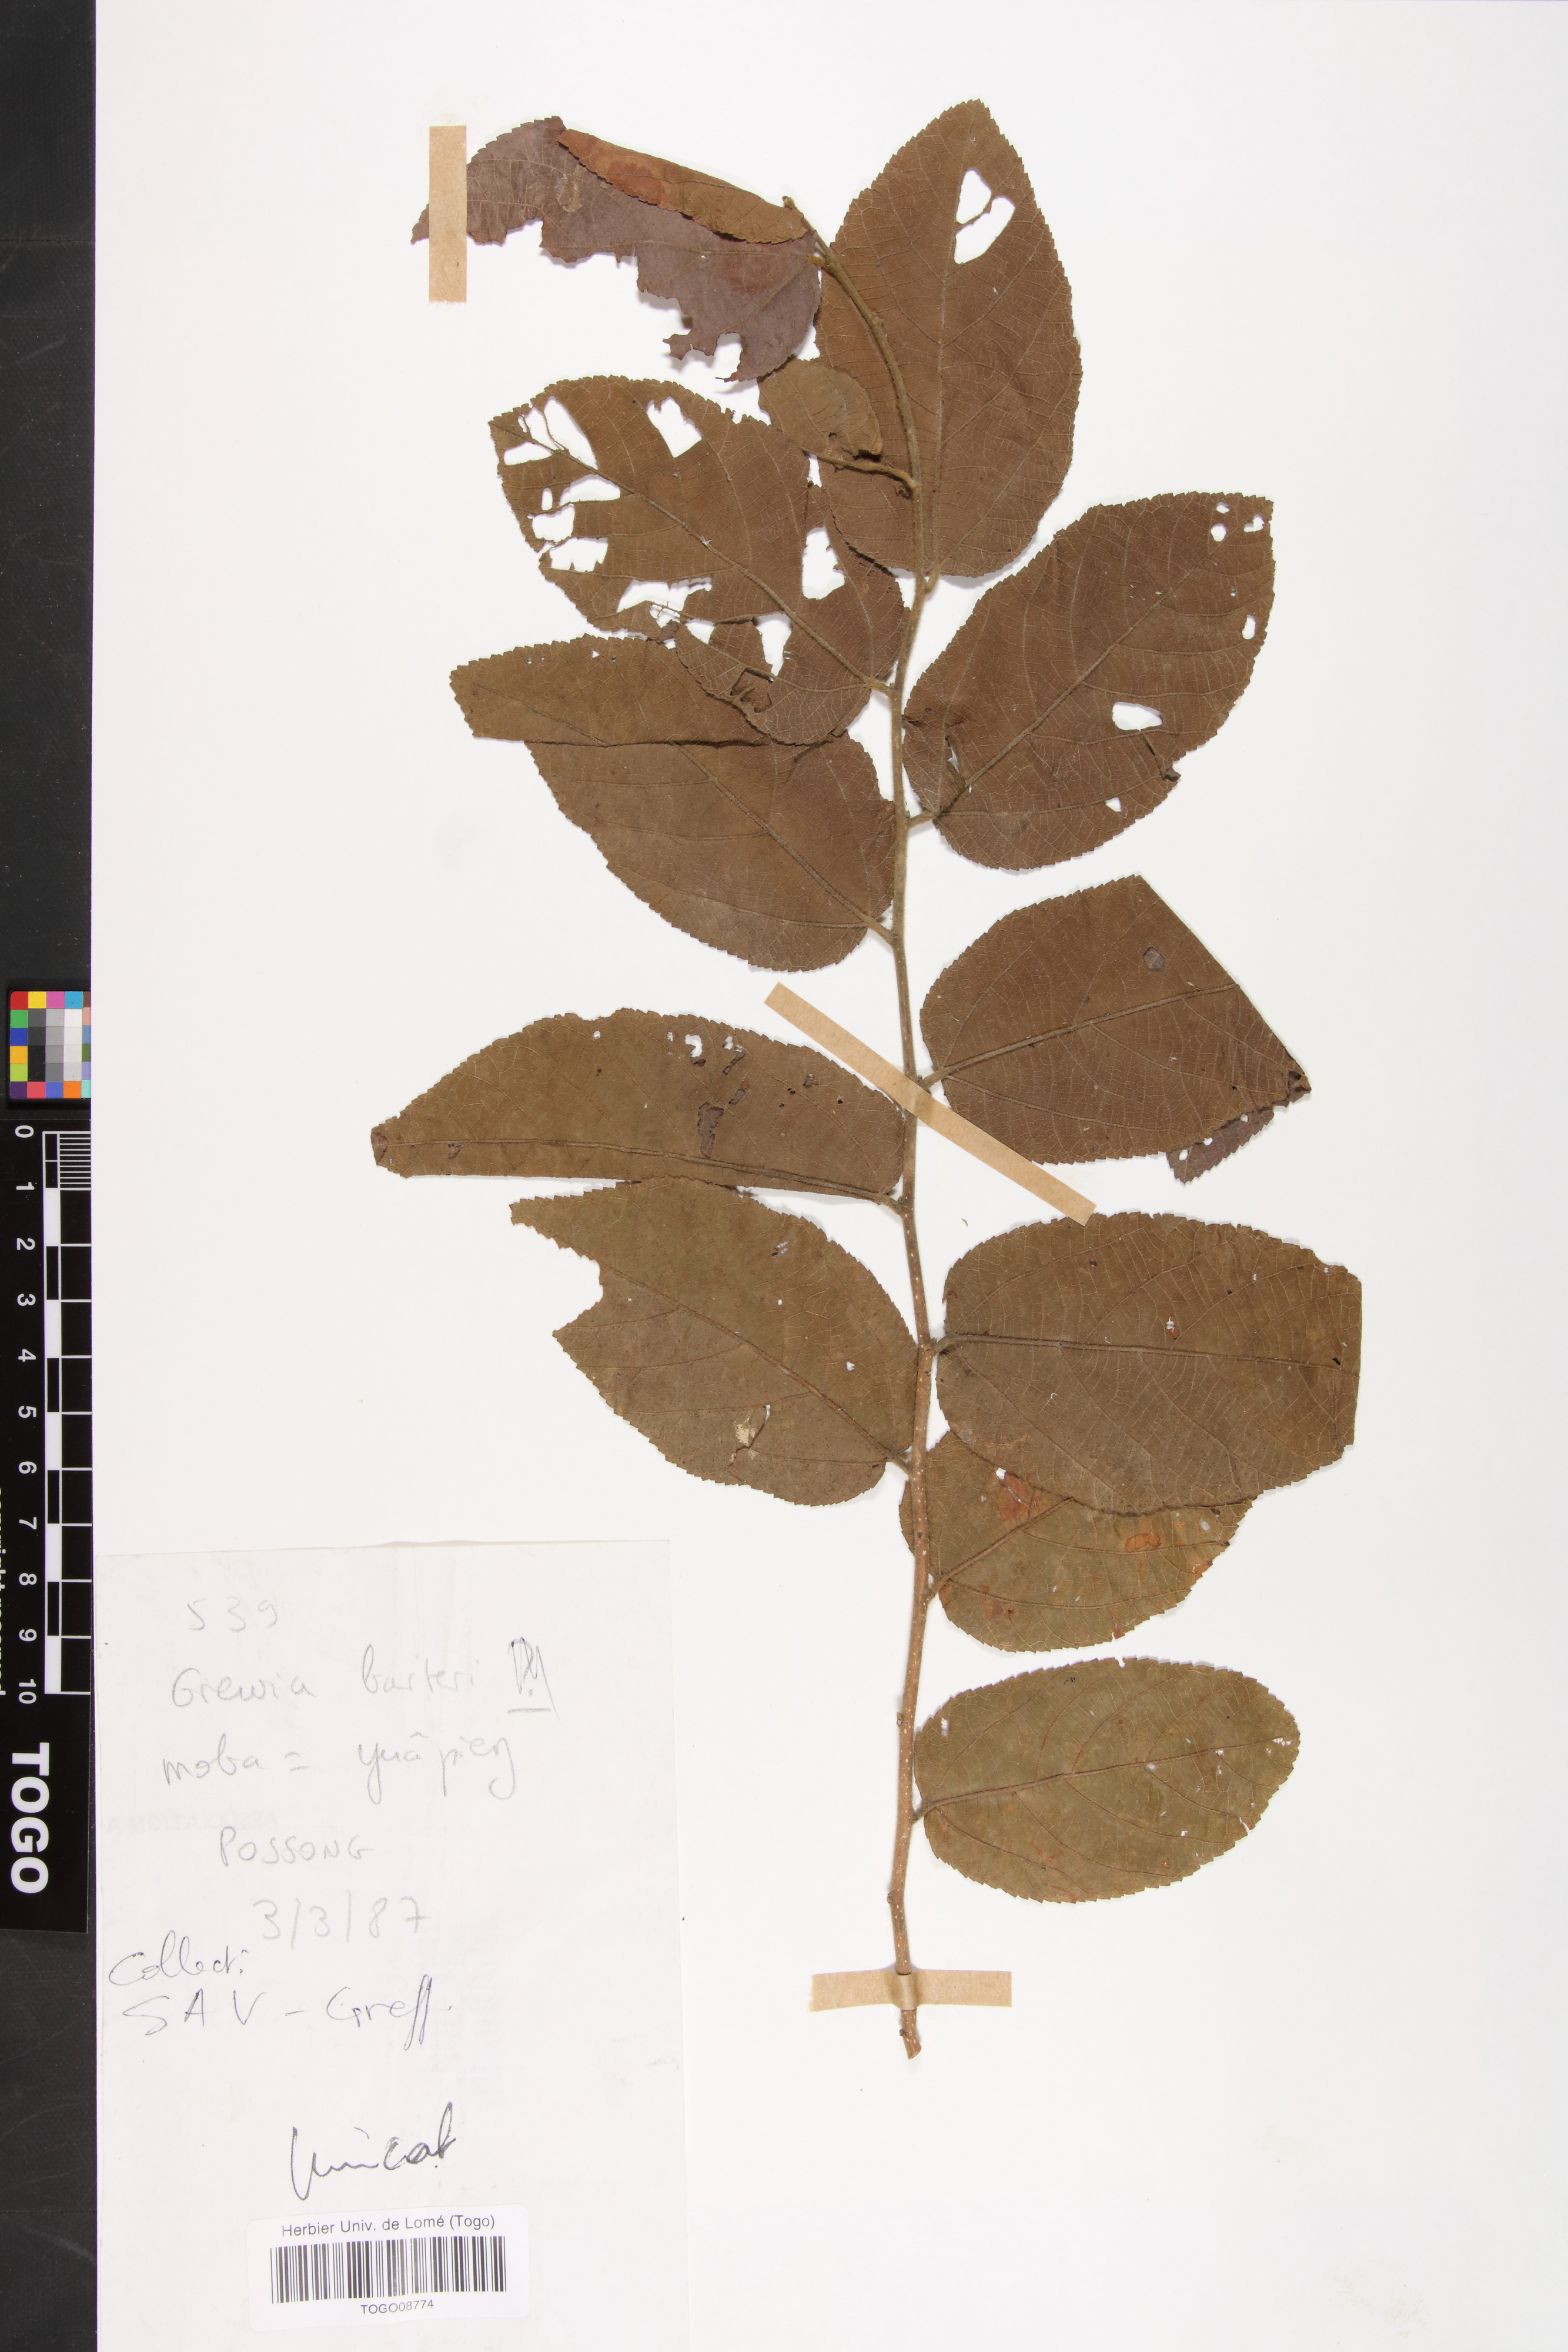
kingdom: Plantae
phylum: Tracheophyta
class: Magnoliopsida
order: Malvales
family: Malvaceae
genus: Grewia
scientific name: Grewia barteri
